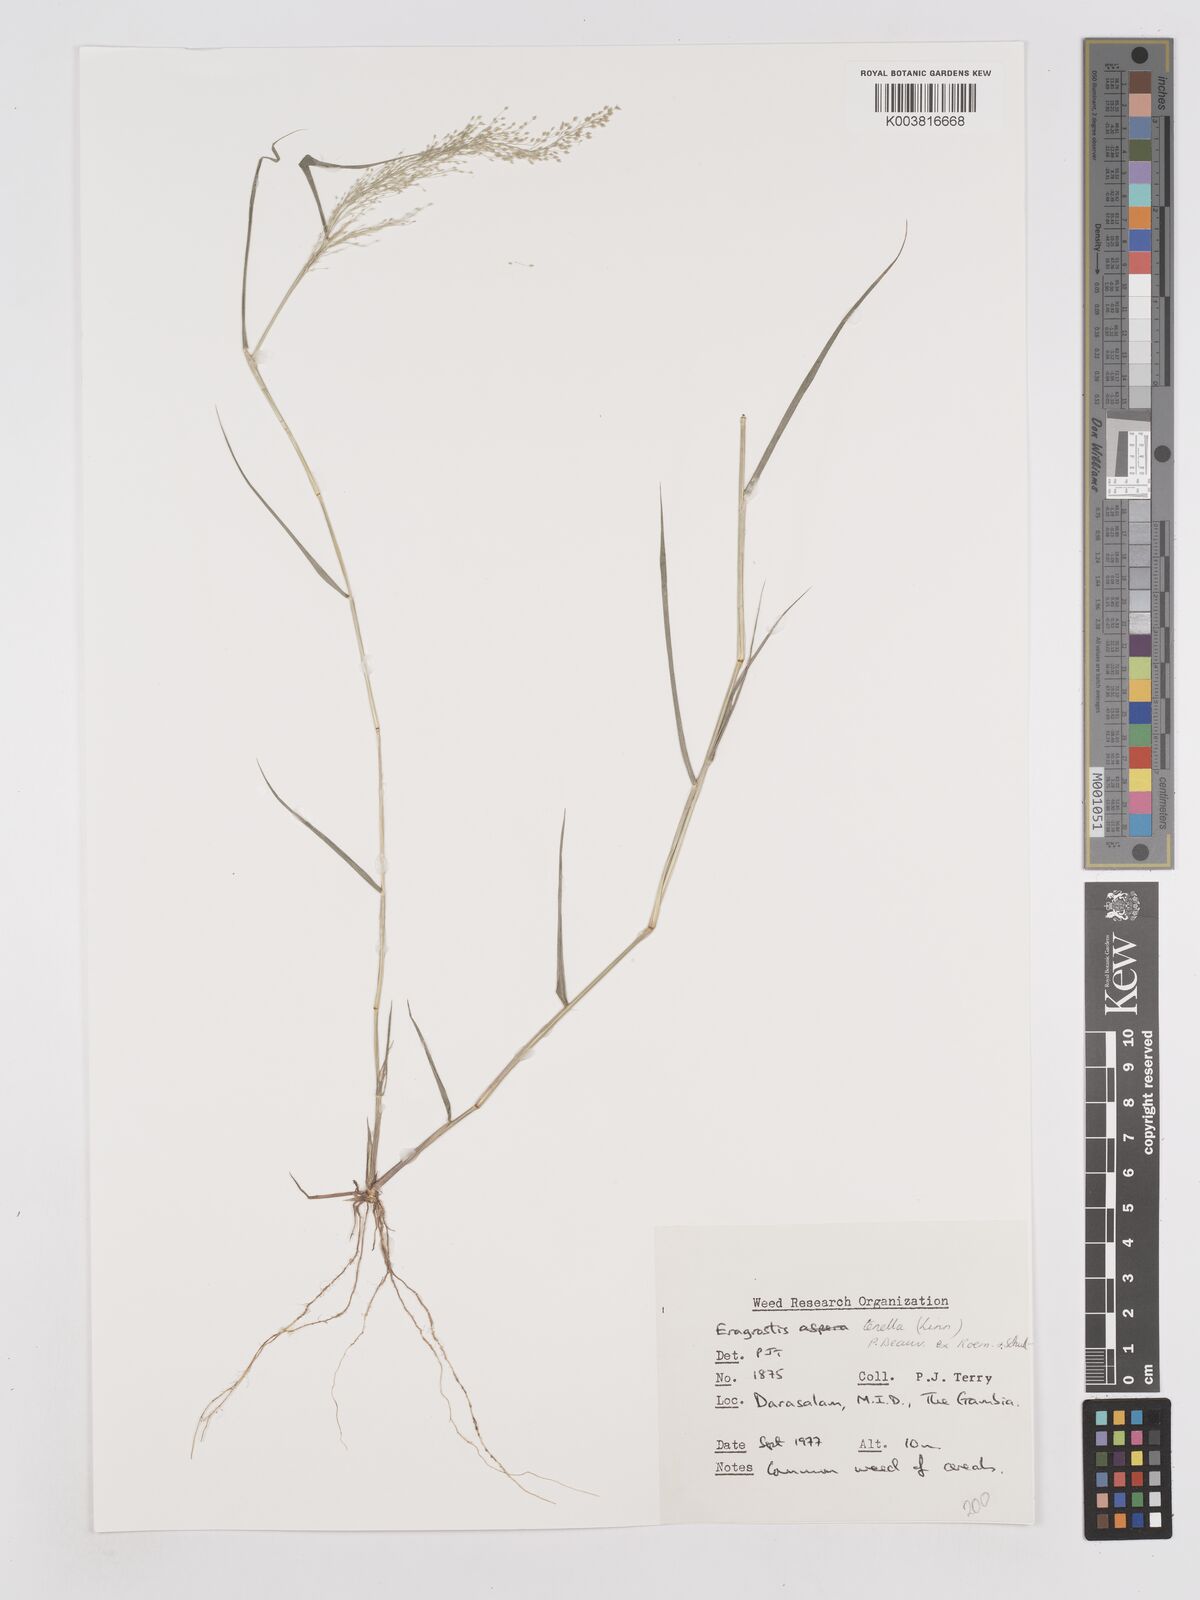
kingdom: Plantae
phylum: Tracheophyta
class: Liliopsida
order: Poales
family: Poaceae
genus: Eragrostis
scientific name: Eragrostis tenella
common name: Japanese lovegrass
